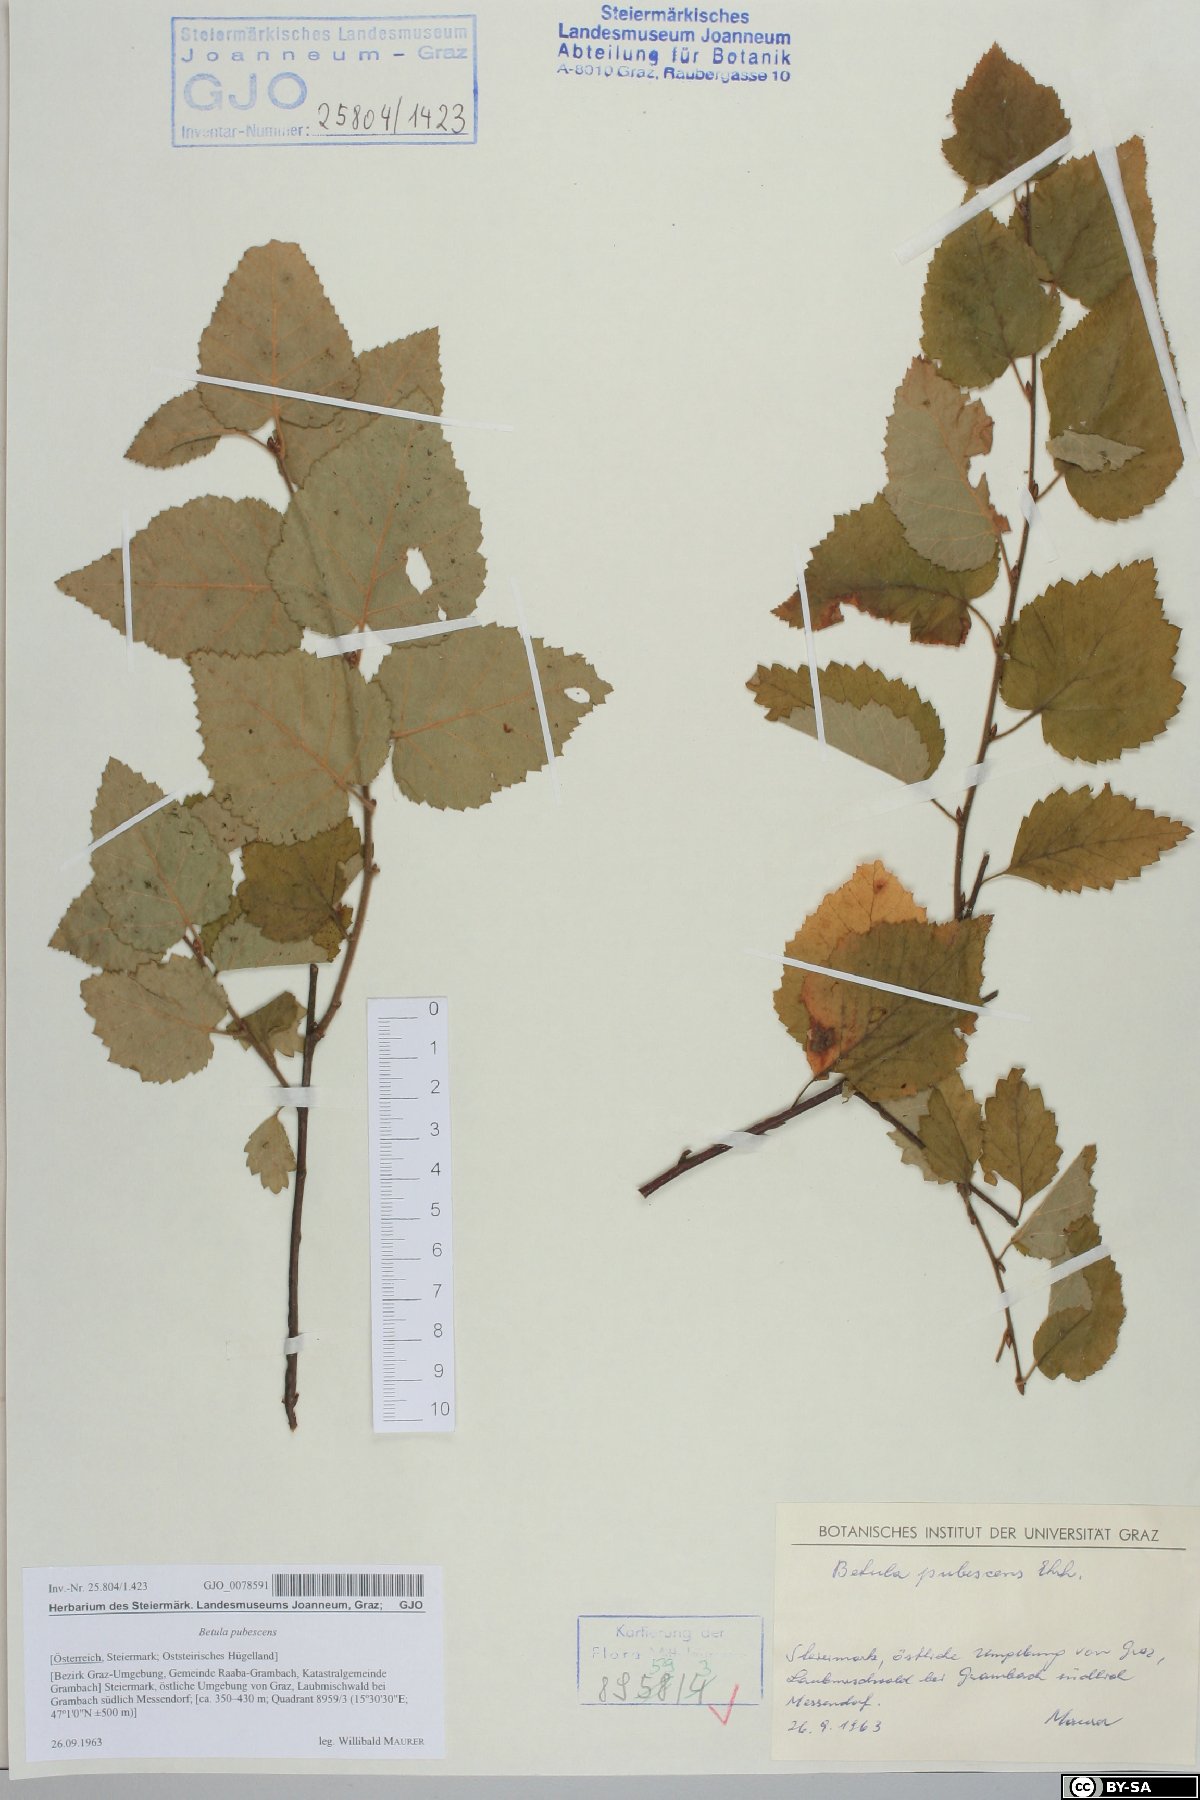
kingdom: Plantae
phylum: Tracheophyta
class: Magnoliopsida
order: Fagales
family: Betulaceae
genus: Betula
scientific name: Betula pubescens
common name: Downy birch
